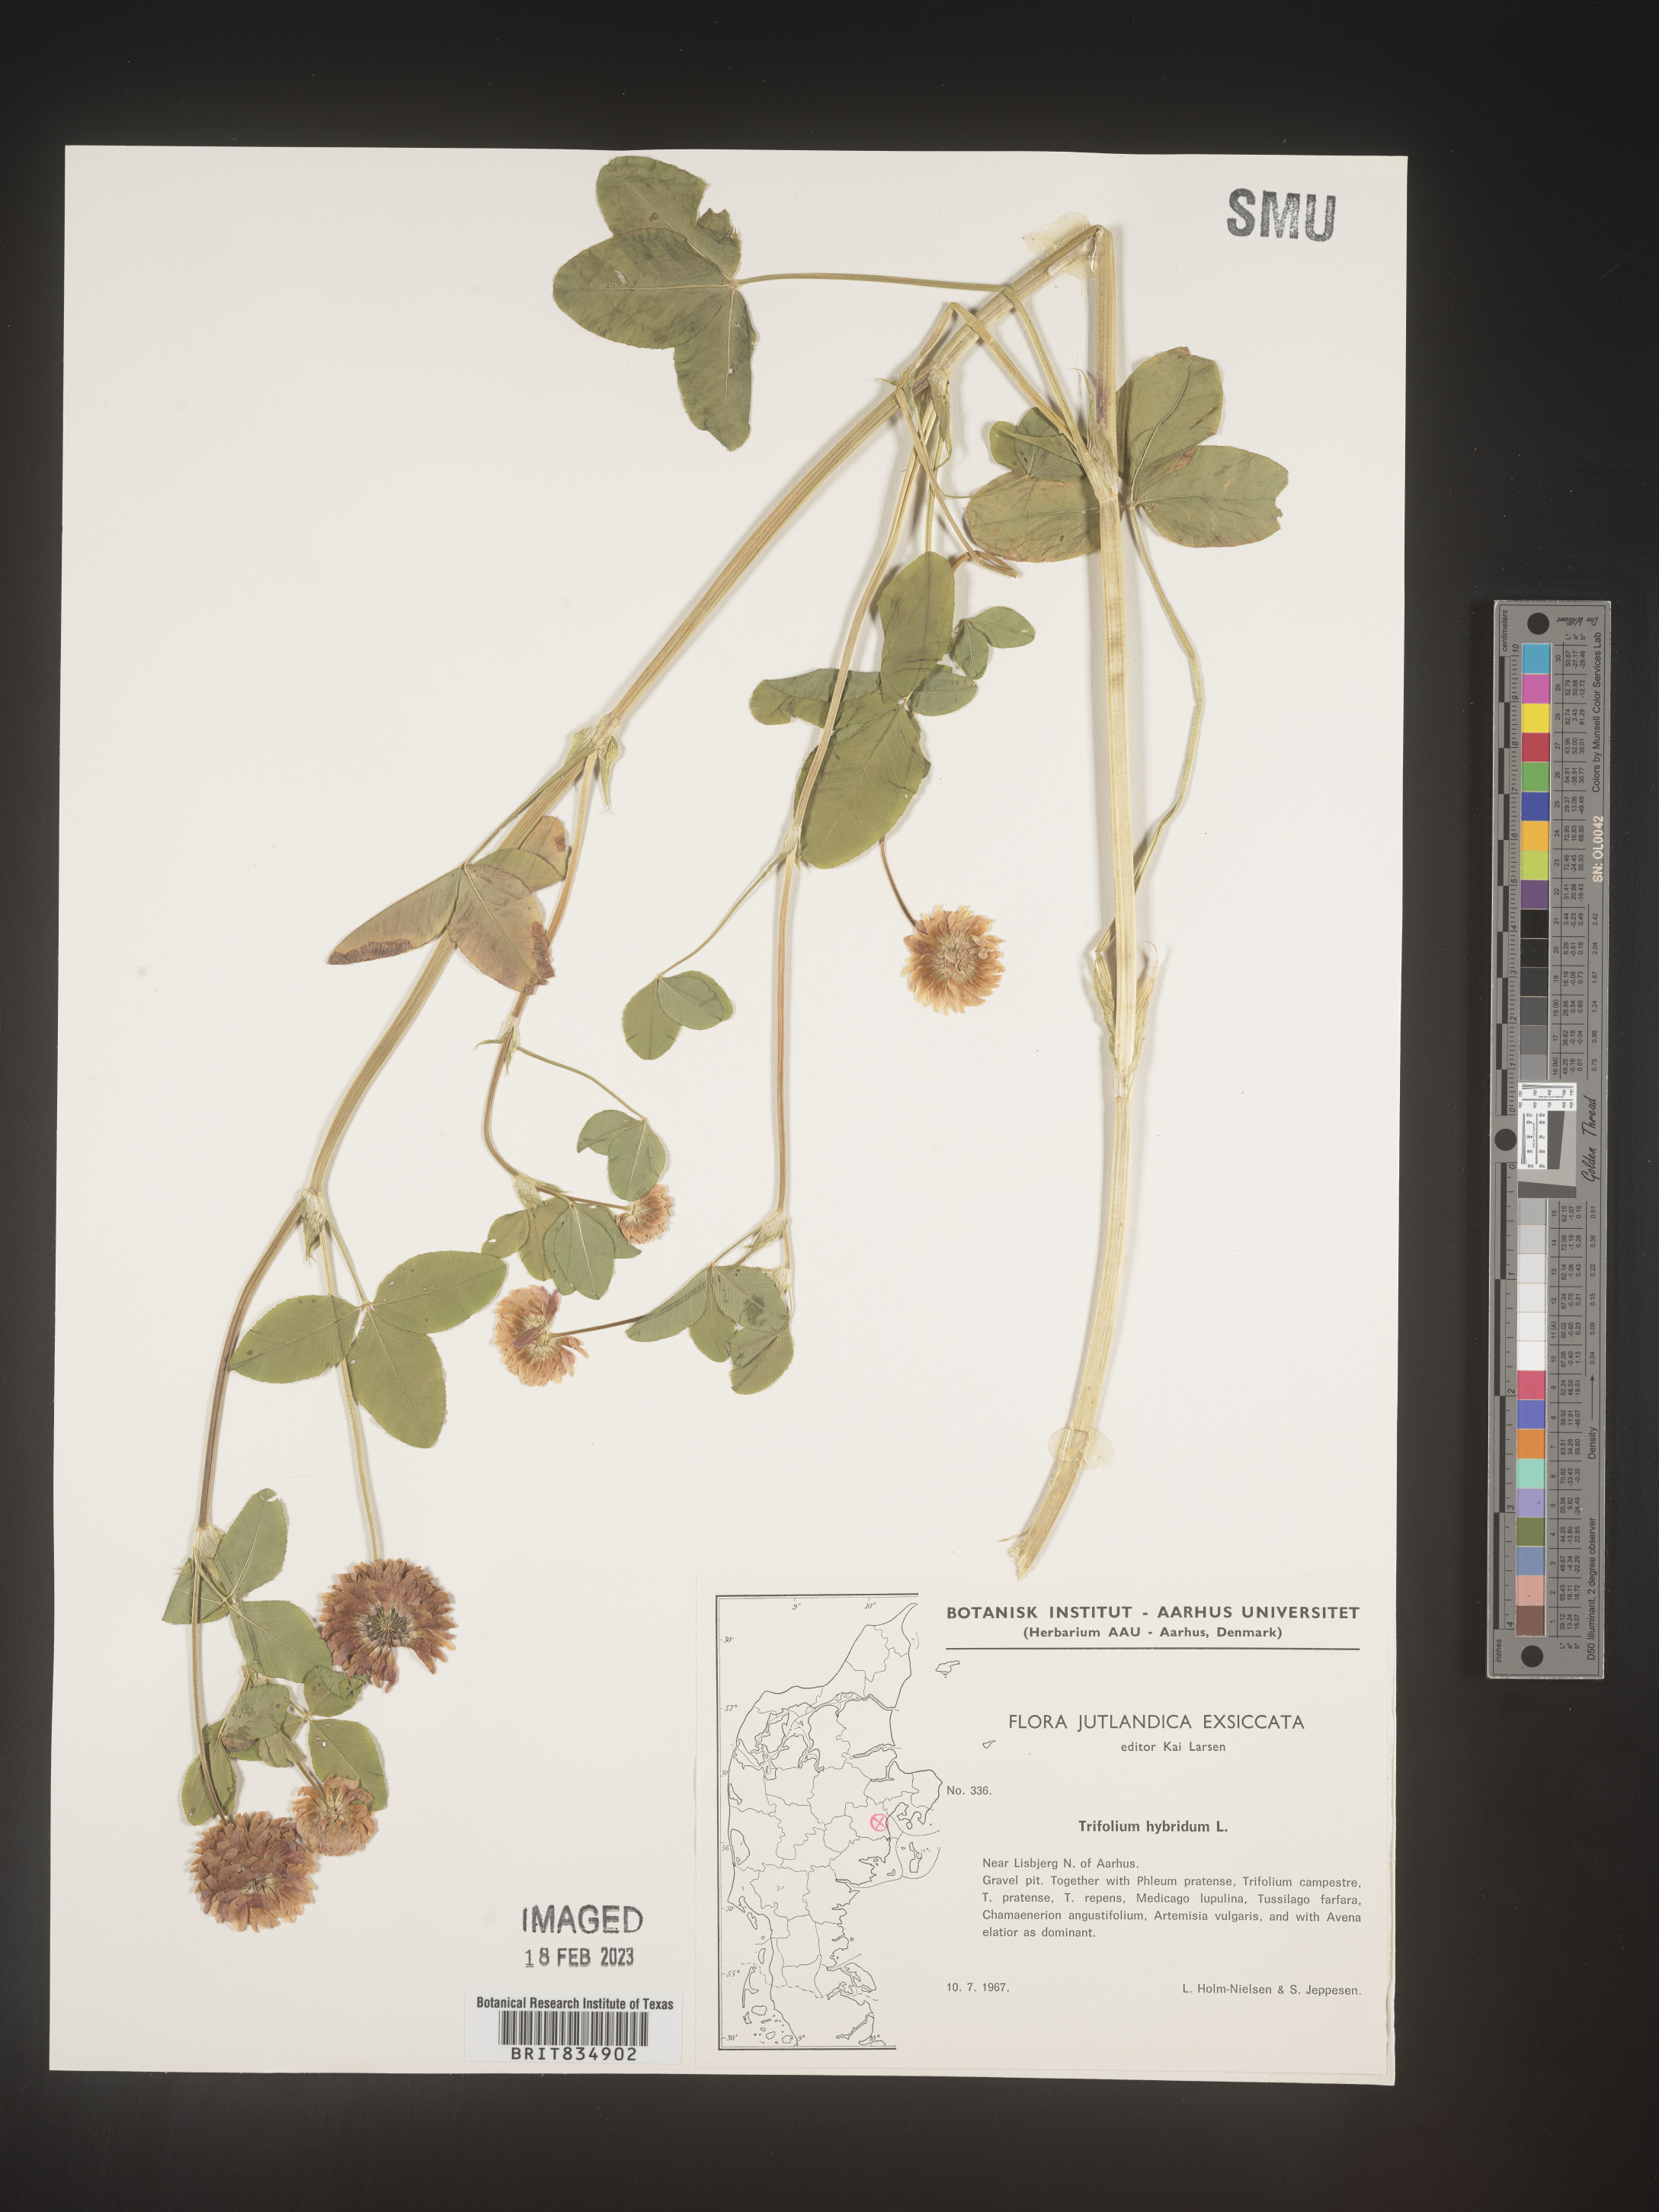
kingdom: Plantae
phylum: Tracheophyta
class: Magnoliopsida
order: Fabales
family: Fabaceae
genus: Trifolium
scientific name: Trifolium
